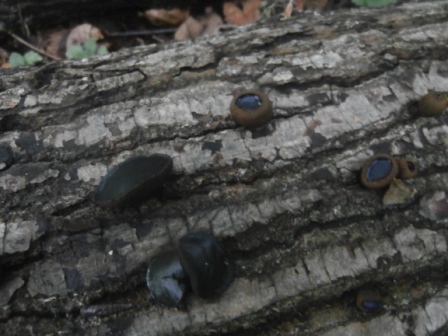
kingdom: Fungi
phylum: Ascomycota
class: Leotiomycetes
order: Phacidiales
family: Phacidiaceae
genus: Bulgaria
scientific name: Bulgaria inquinans
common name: afsmittende topsvamp
